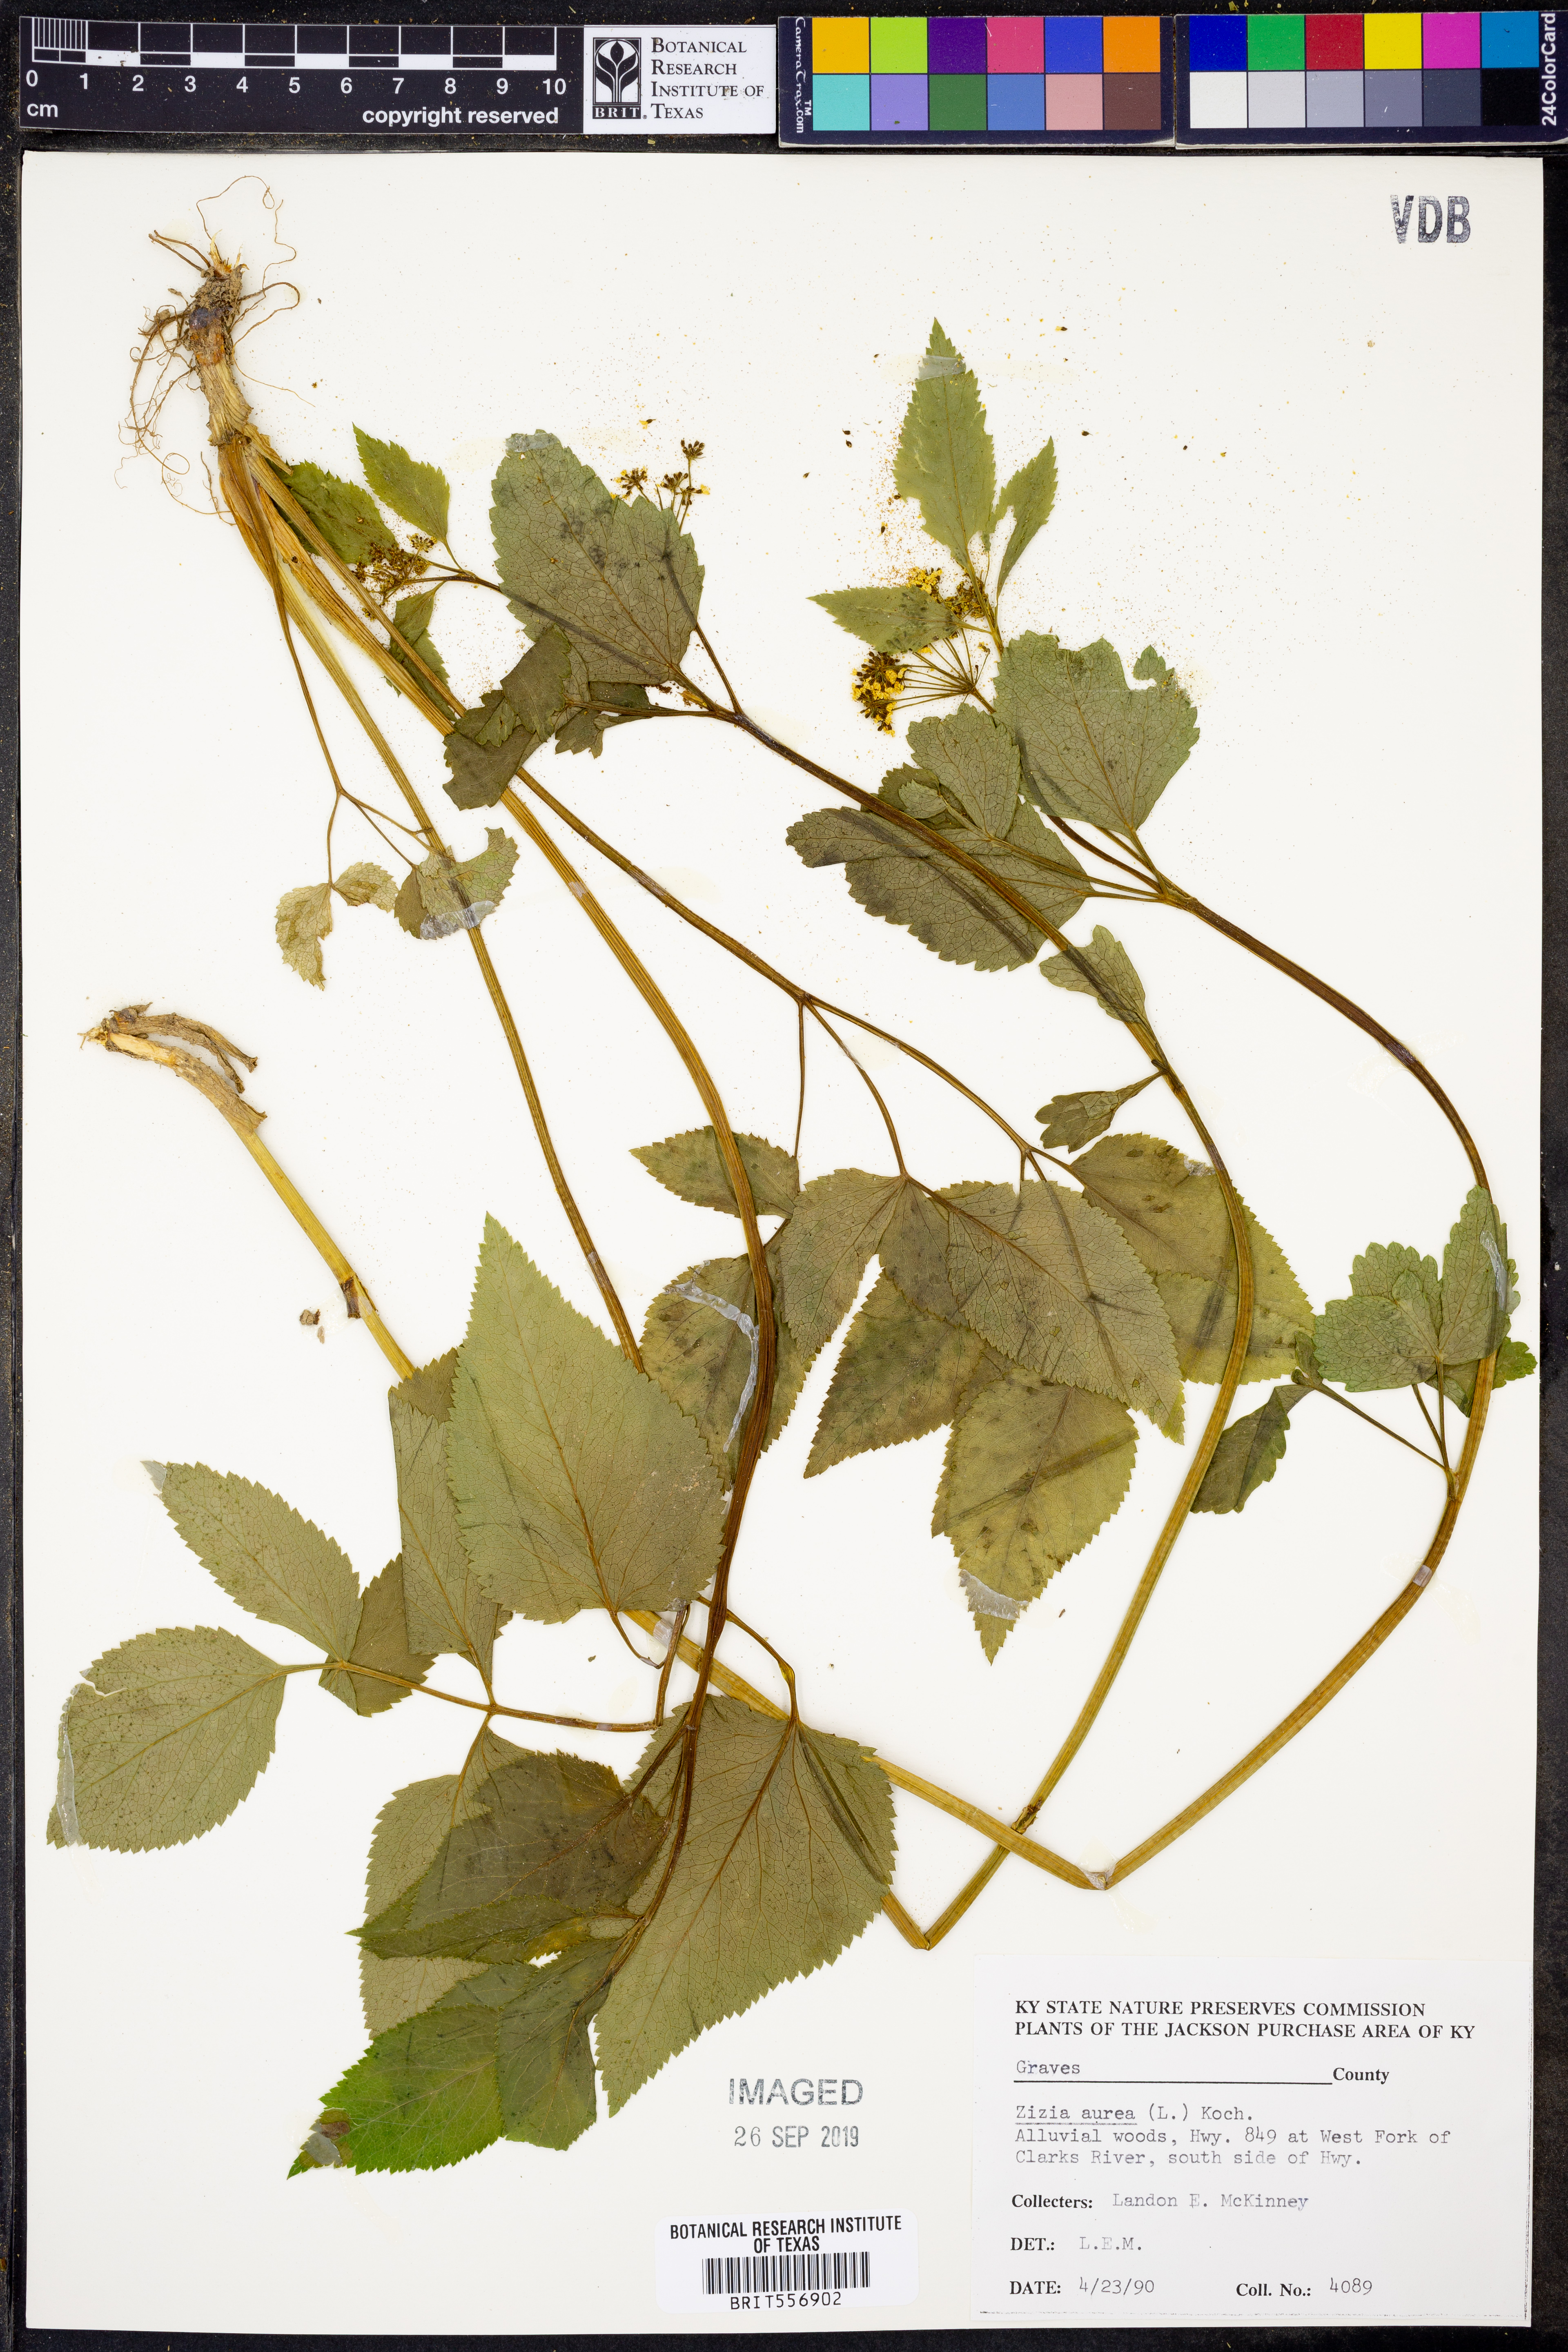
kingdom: Plantae
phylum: Tracheophyta
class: Magnoliopsida
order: Apiales
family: Apiaceae
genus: Zizia
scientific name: Zizia aurea
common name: Golden alexanders
